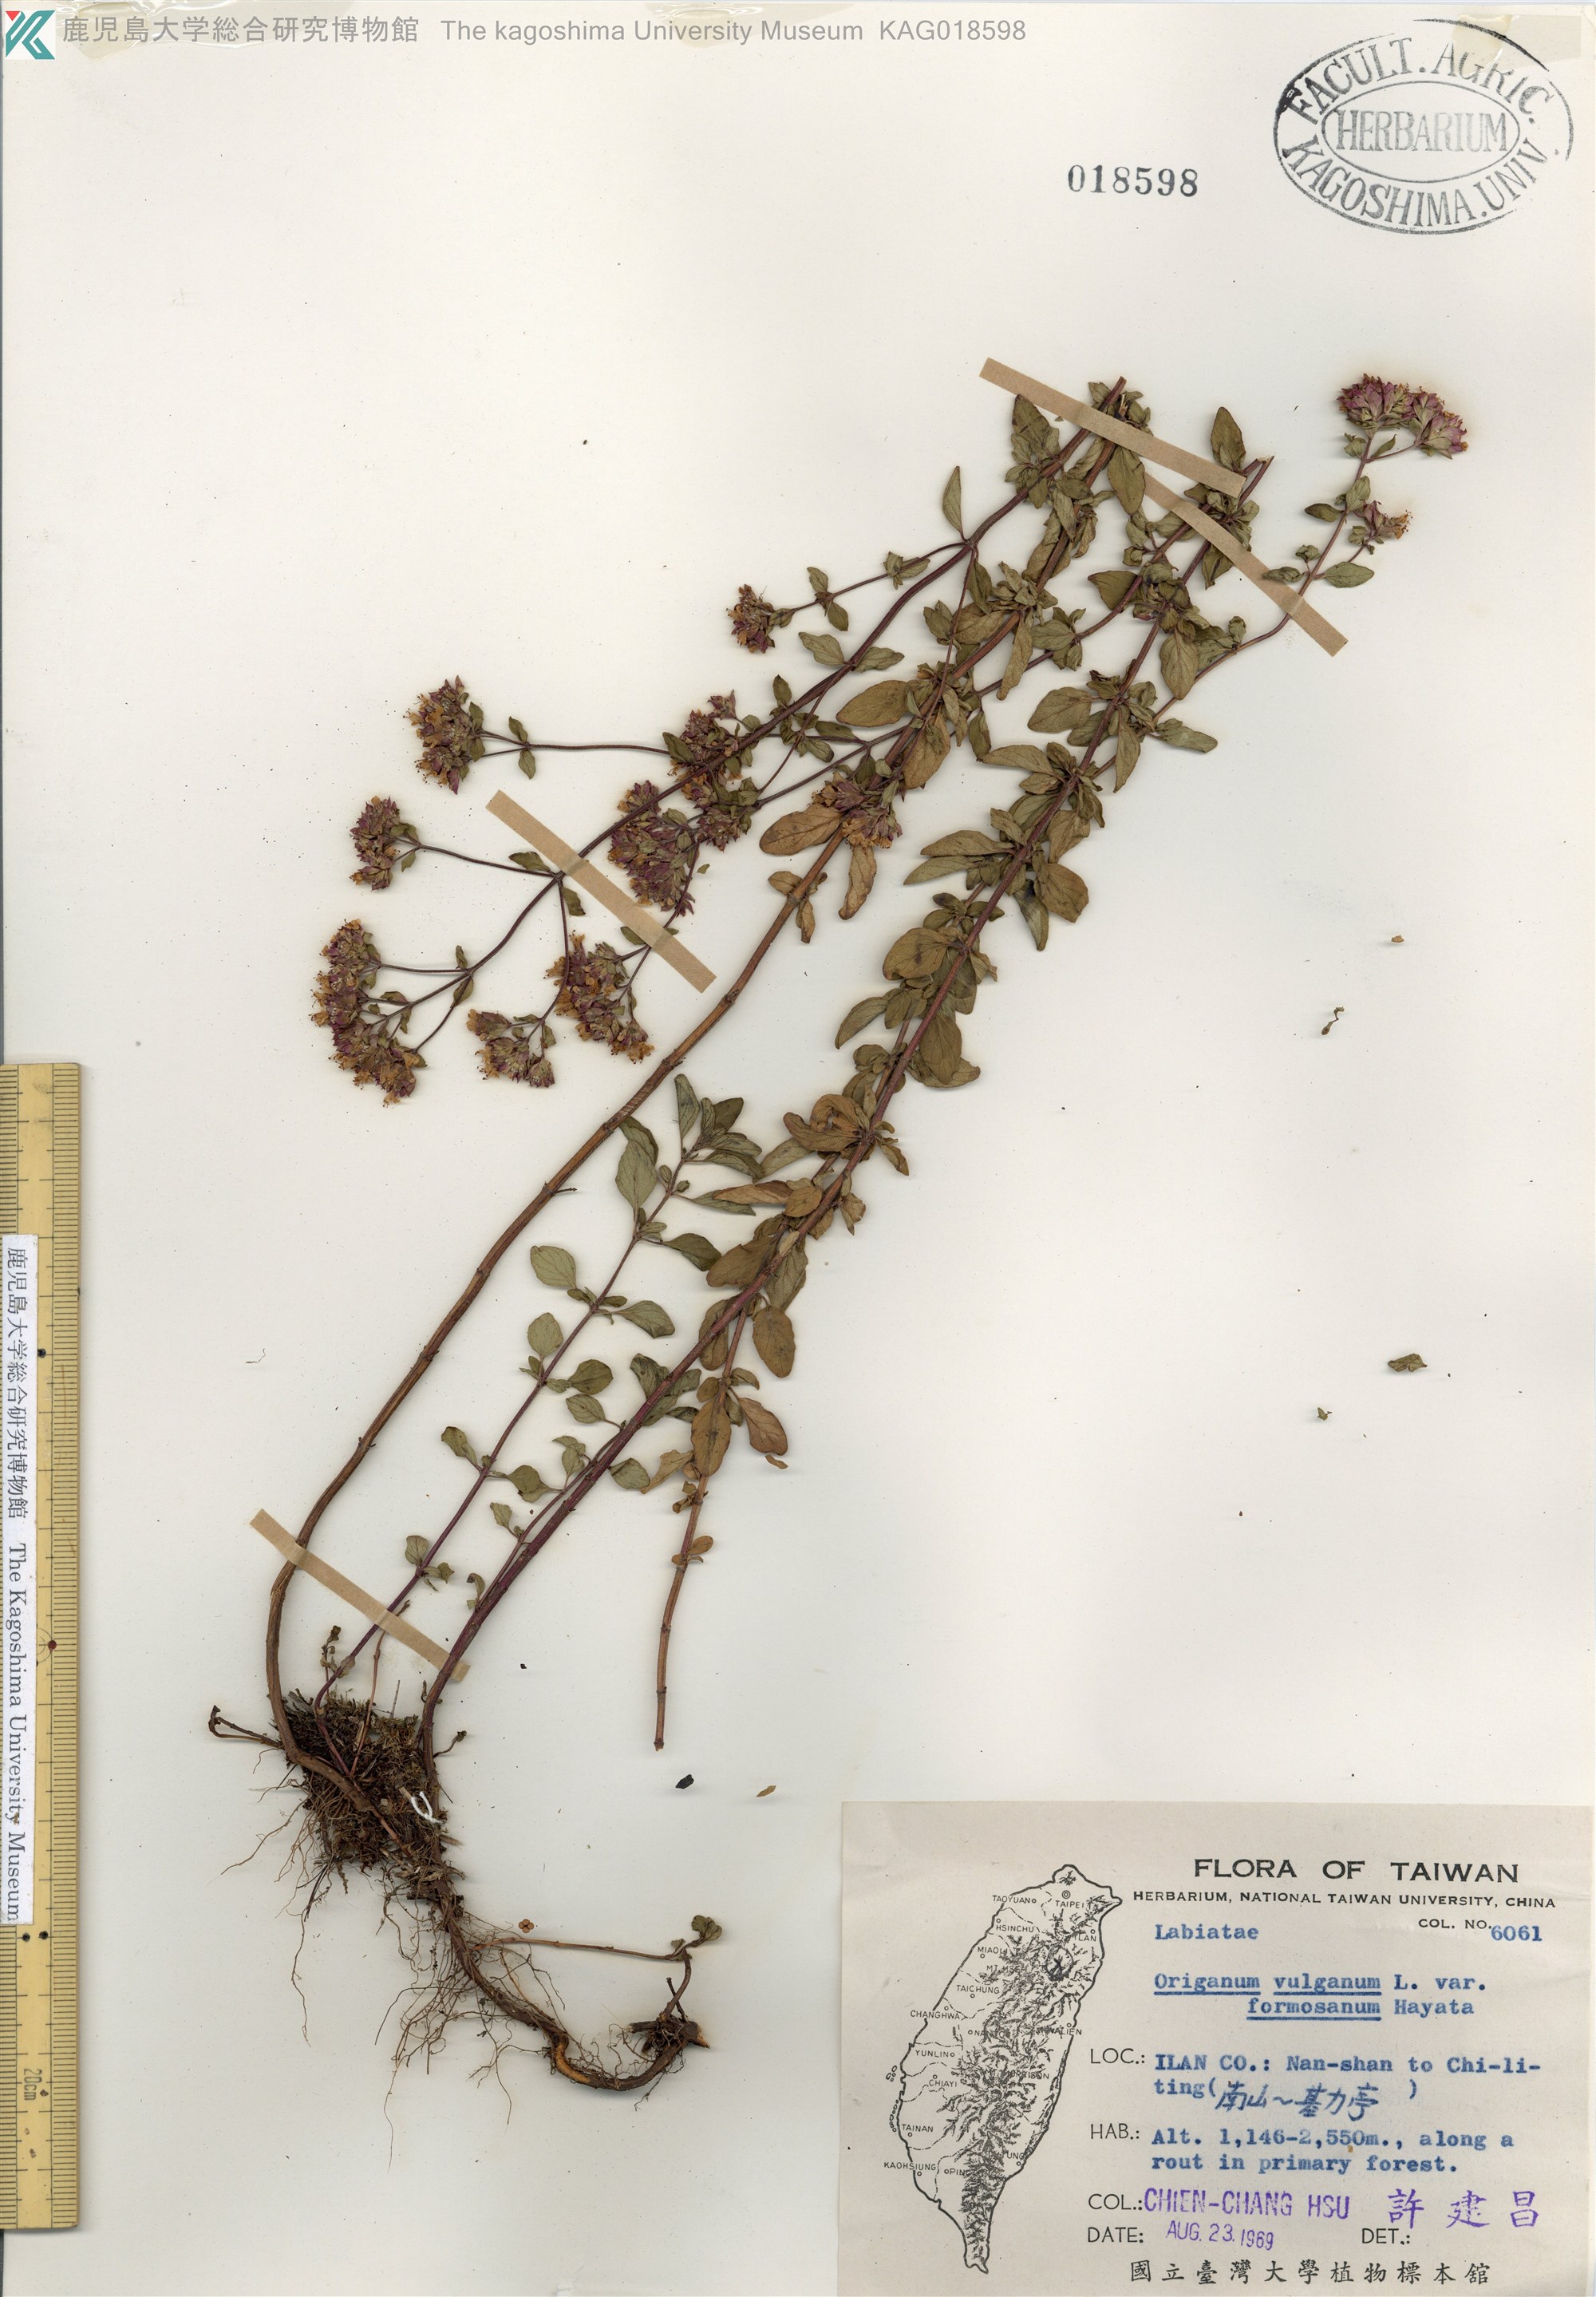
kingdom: Plantae
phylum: Tracheophyta
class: Magnoliopsida
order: Lamiales
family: Lamiaceae
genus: Origanum
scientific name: Origanum vulgare
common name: Wild marjoram
